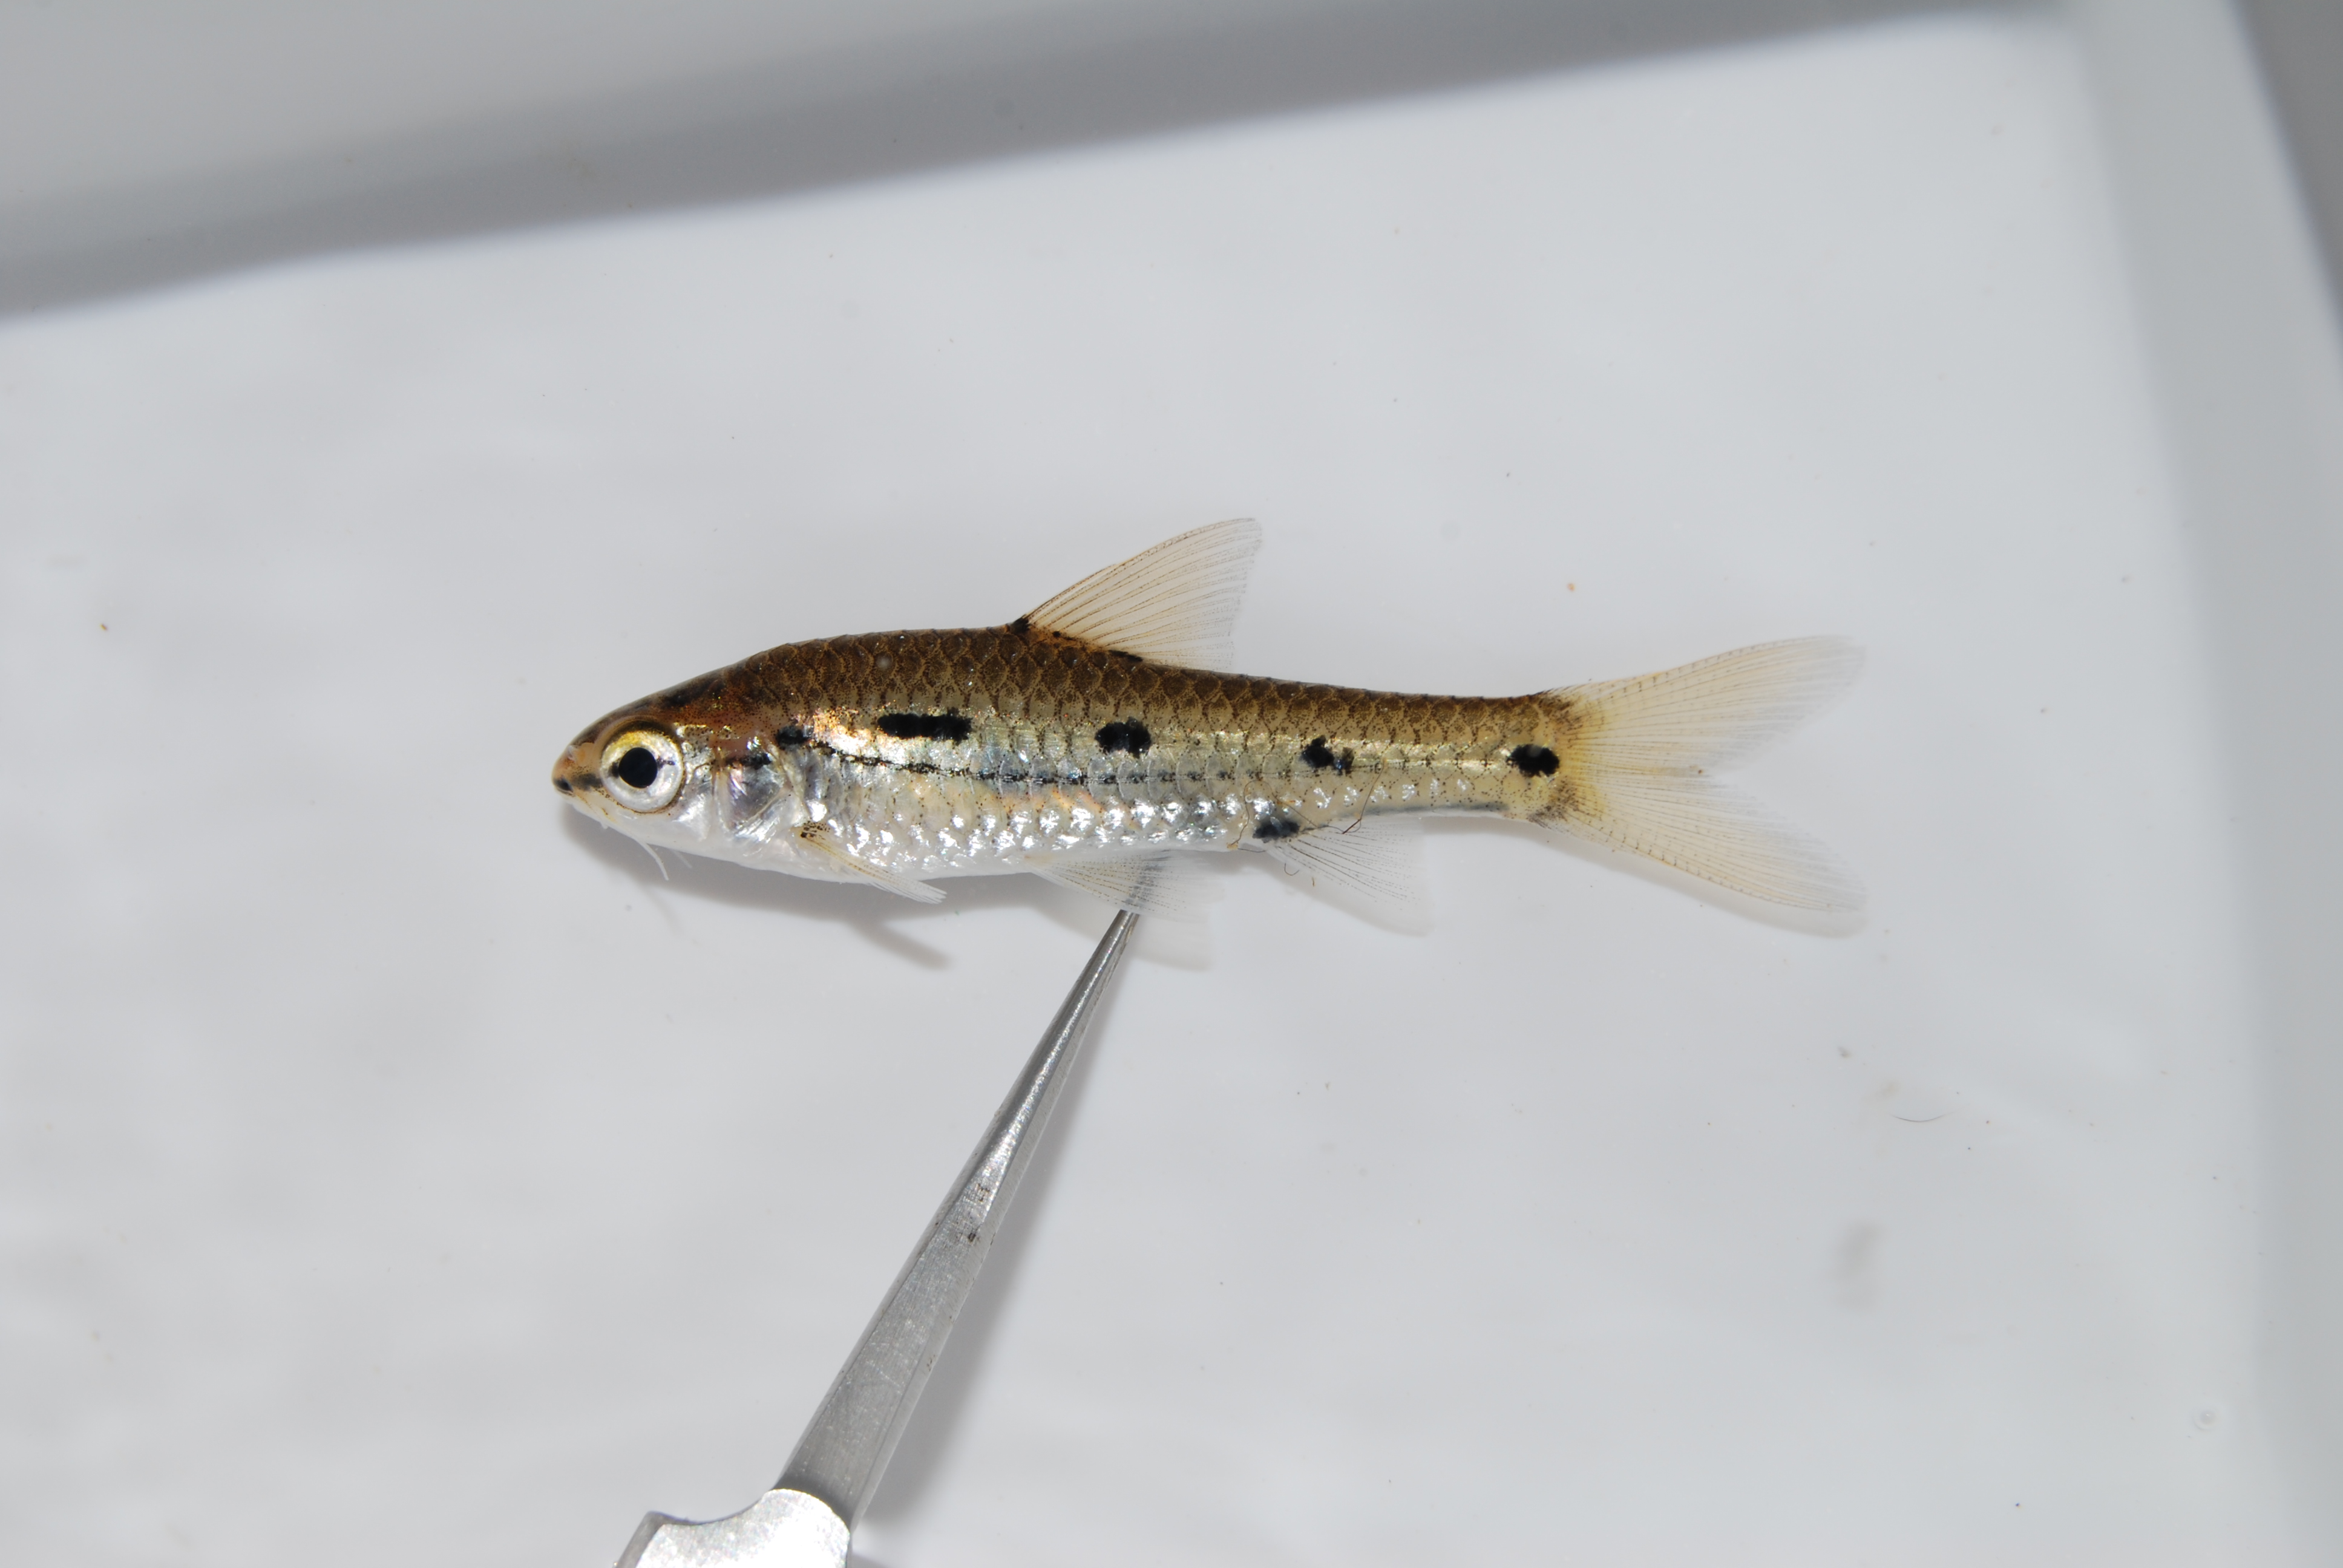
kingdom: Animalia
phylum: Chordata
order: Cypriniformes
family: Cyprinidae
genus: Enteromius
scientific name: Enteromius bifrenatus
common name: Hyphen barb
